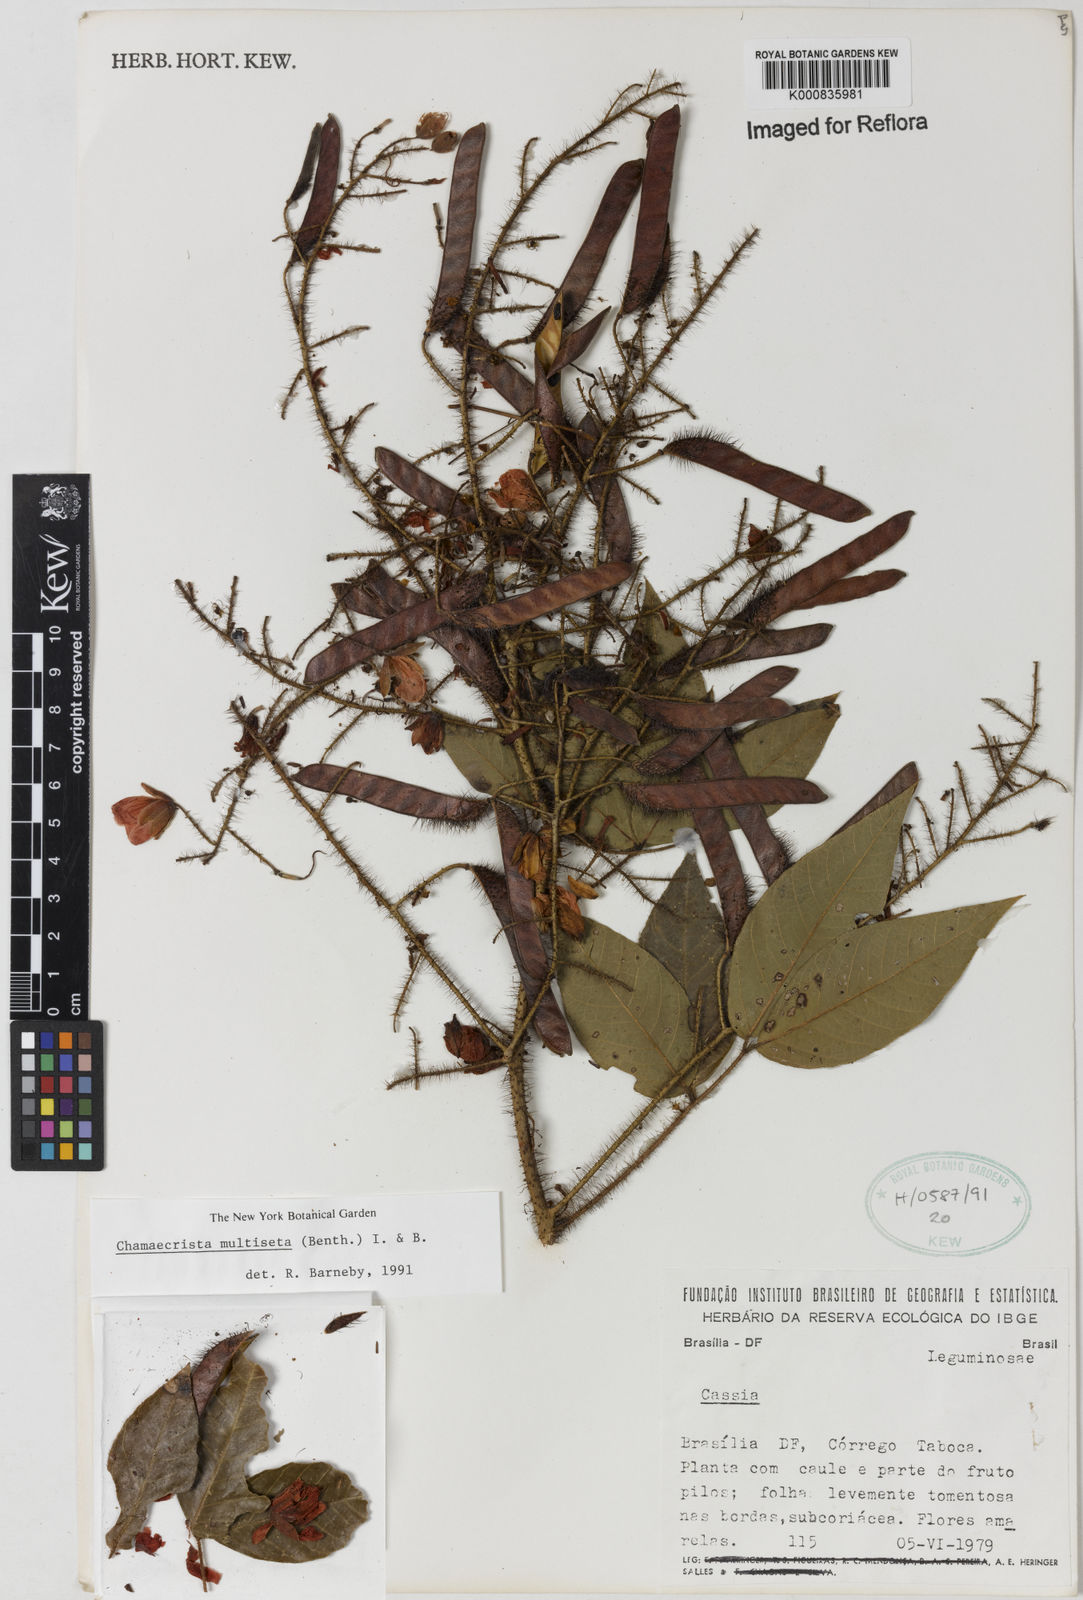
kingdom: Plantae
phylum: Tracheophyta
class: Magnoliopsida
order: Fabales
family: Fabaceae
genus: Chamaecrista
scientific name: Chamaecrista multiseta
